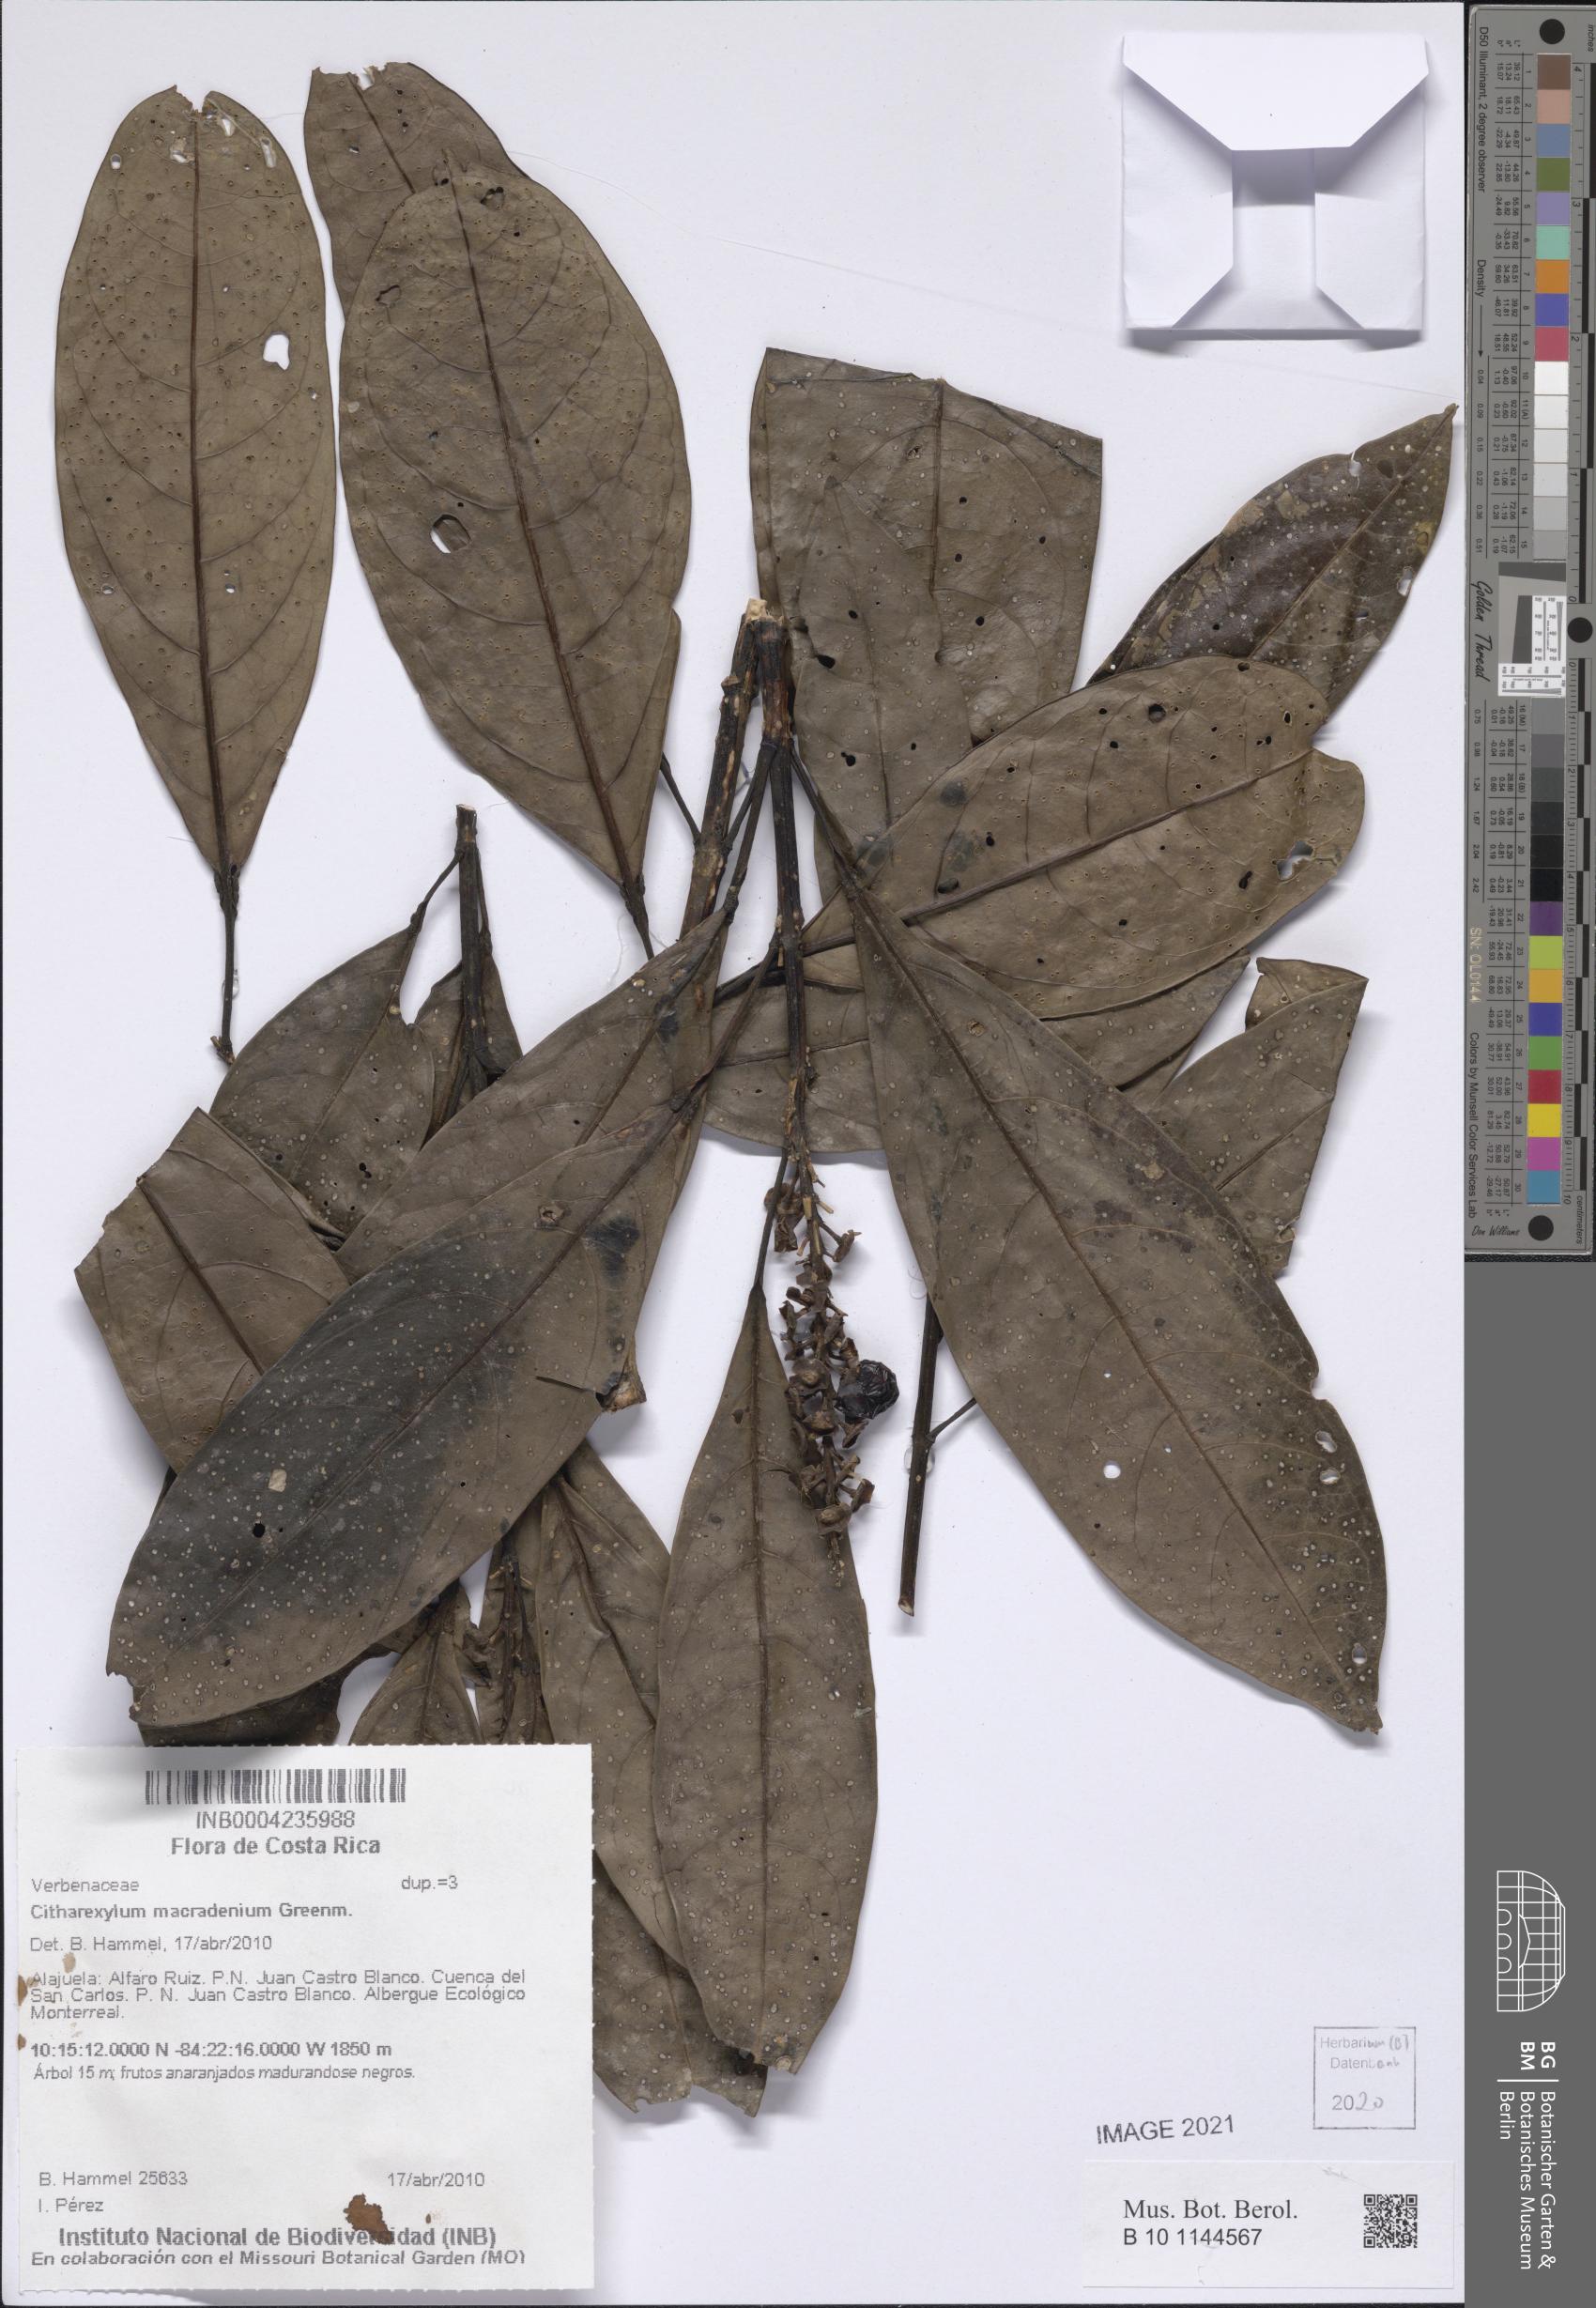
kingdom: Plantae
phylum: Tracheophyta
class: Magnoliopsida
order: Lamiales
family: Verbenaceae
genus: Citharexylum
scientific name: Citharexylum macradenium
